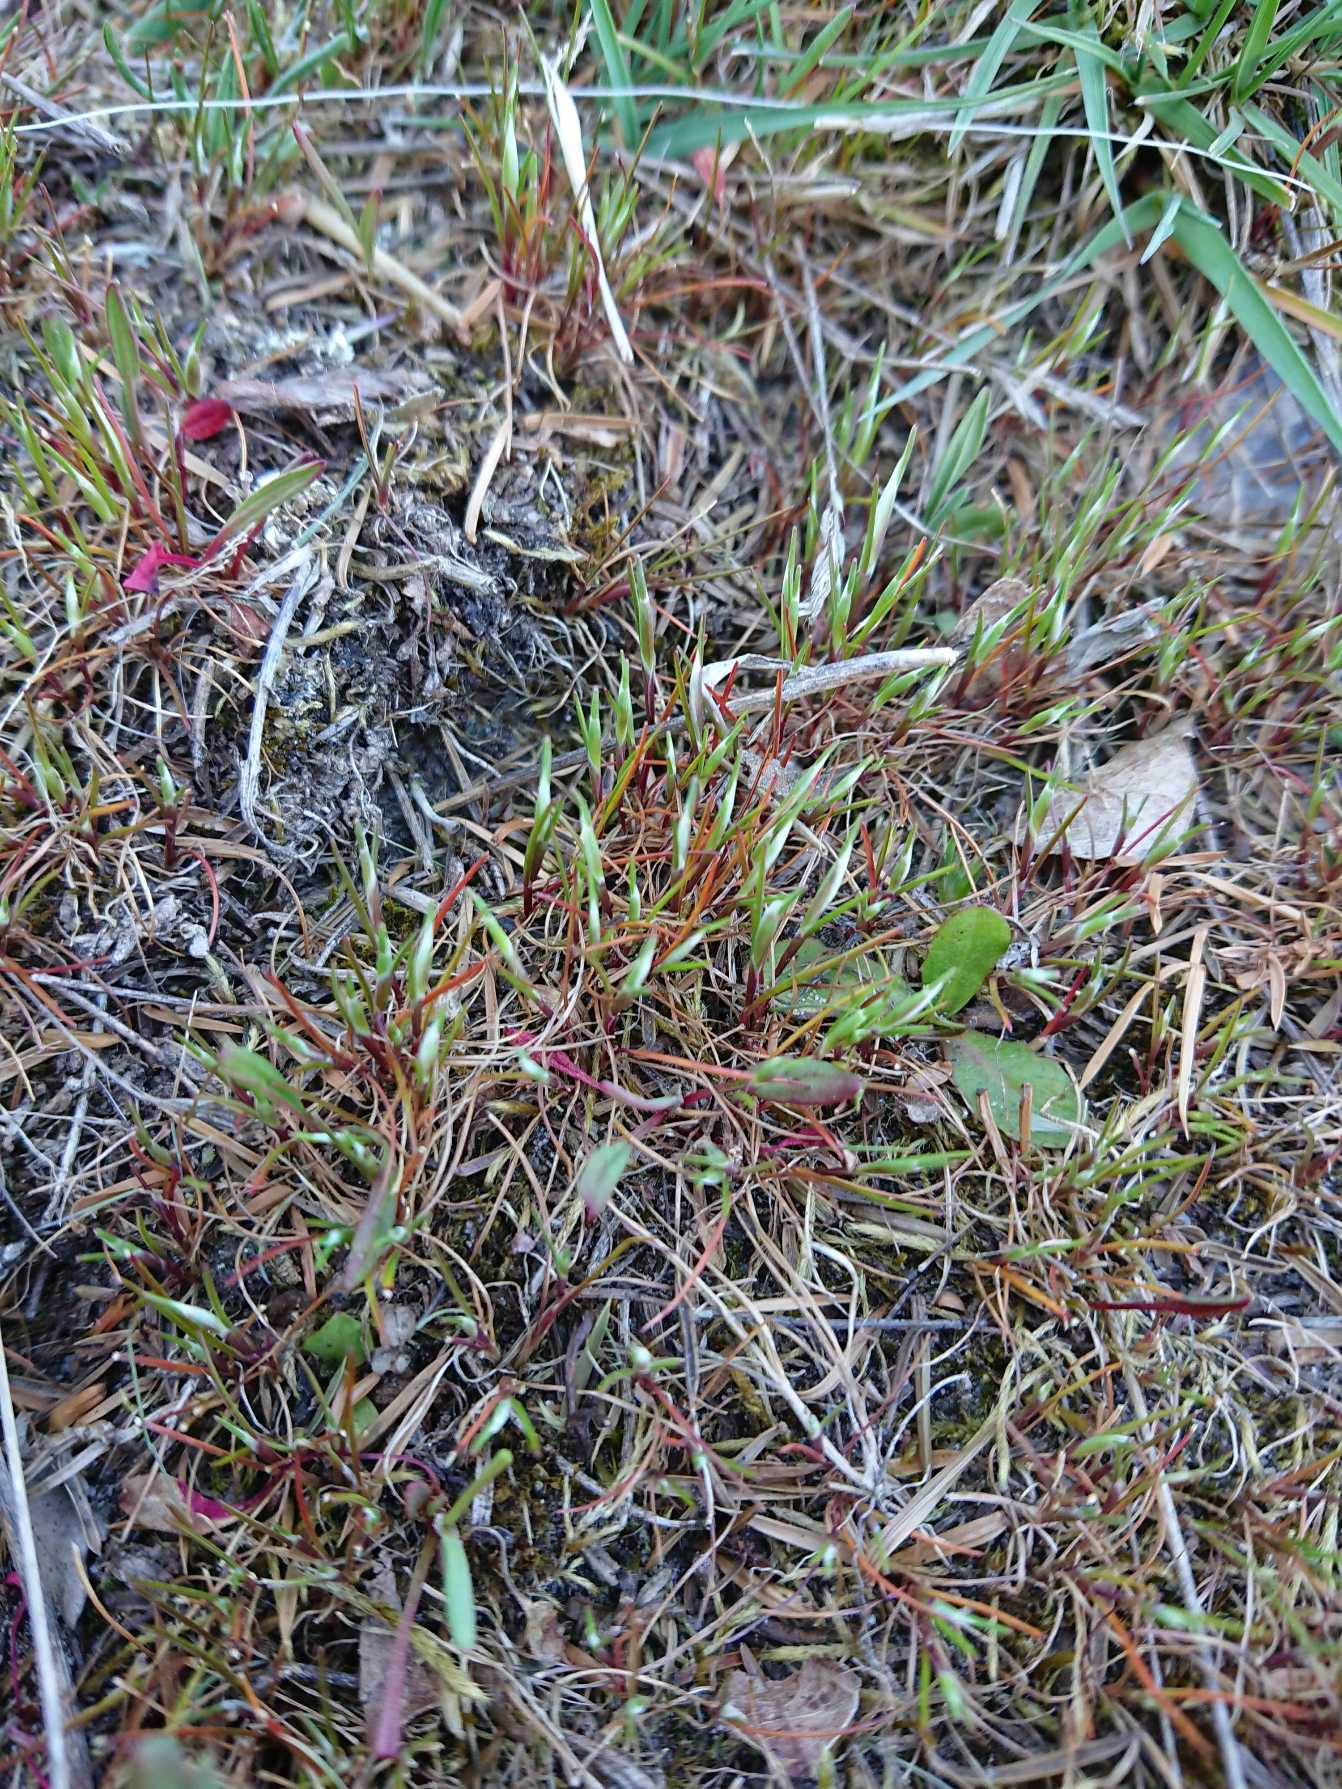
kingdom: Plantae
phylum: Tracheophyta
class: Liliopsida
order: Poales
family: Poaceae
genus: Aira
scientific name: Aira praecox
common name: Tidlig dværgbunke
